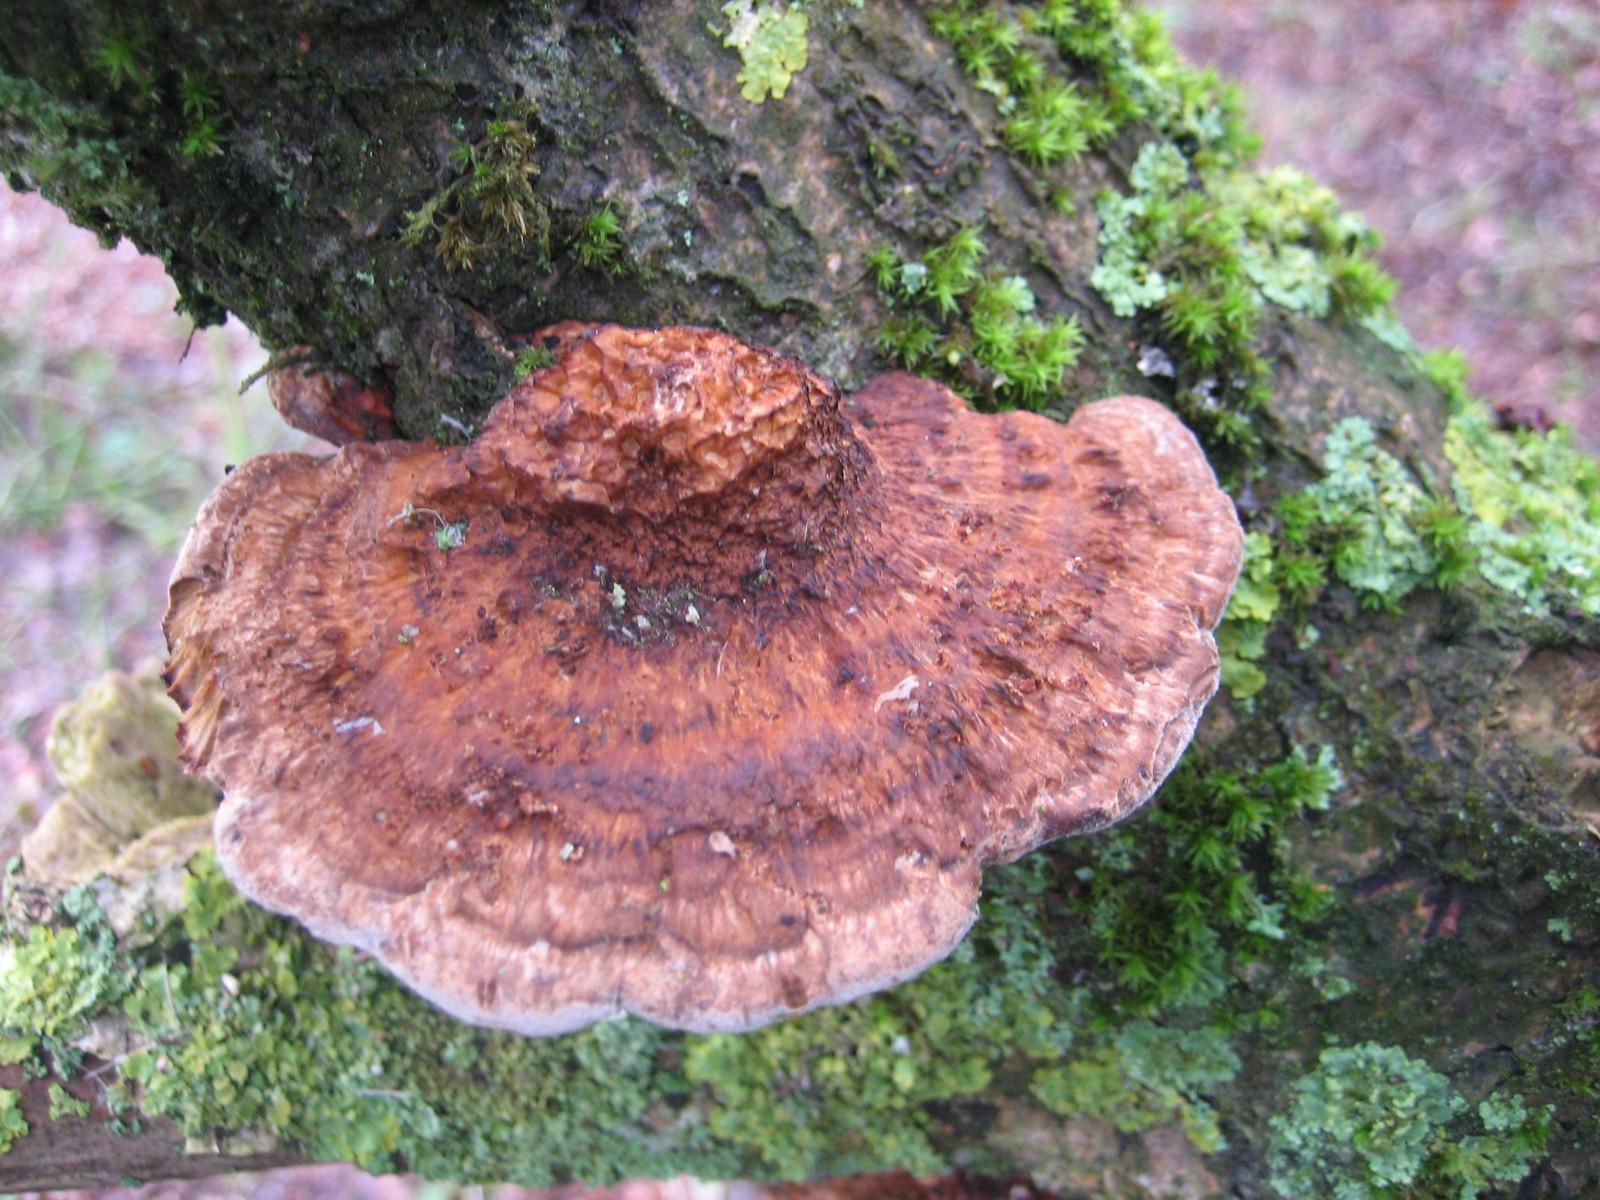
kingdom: Fungi
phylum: Basidiomycota
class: Agaricomycetes
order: Polyporales
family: Polyporaceae
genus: Daedaleopsis
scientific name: Daedaleopsis confragosa
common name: rødmende læderporesvamp
